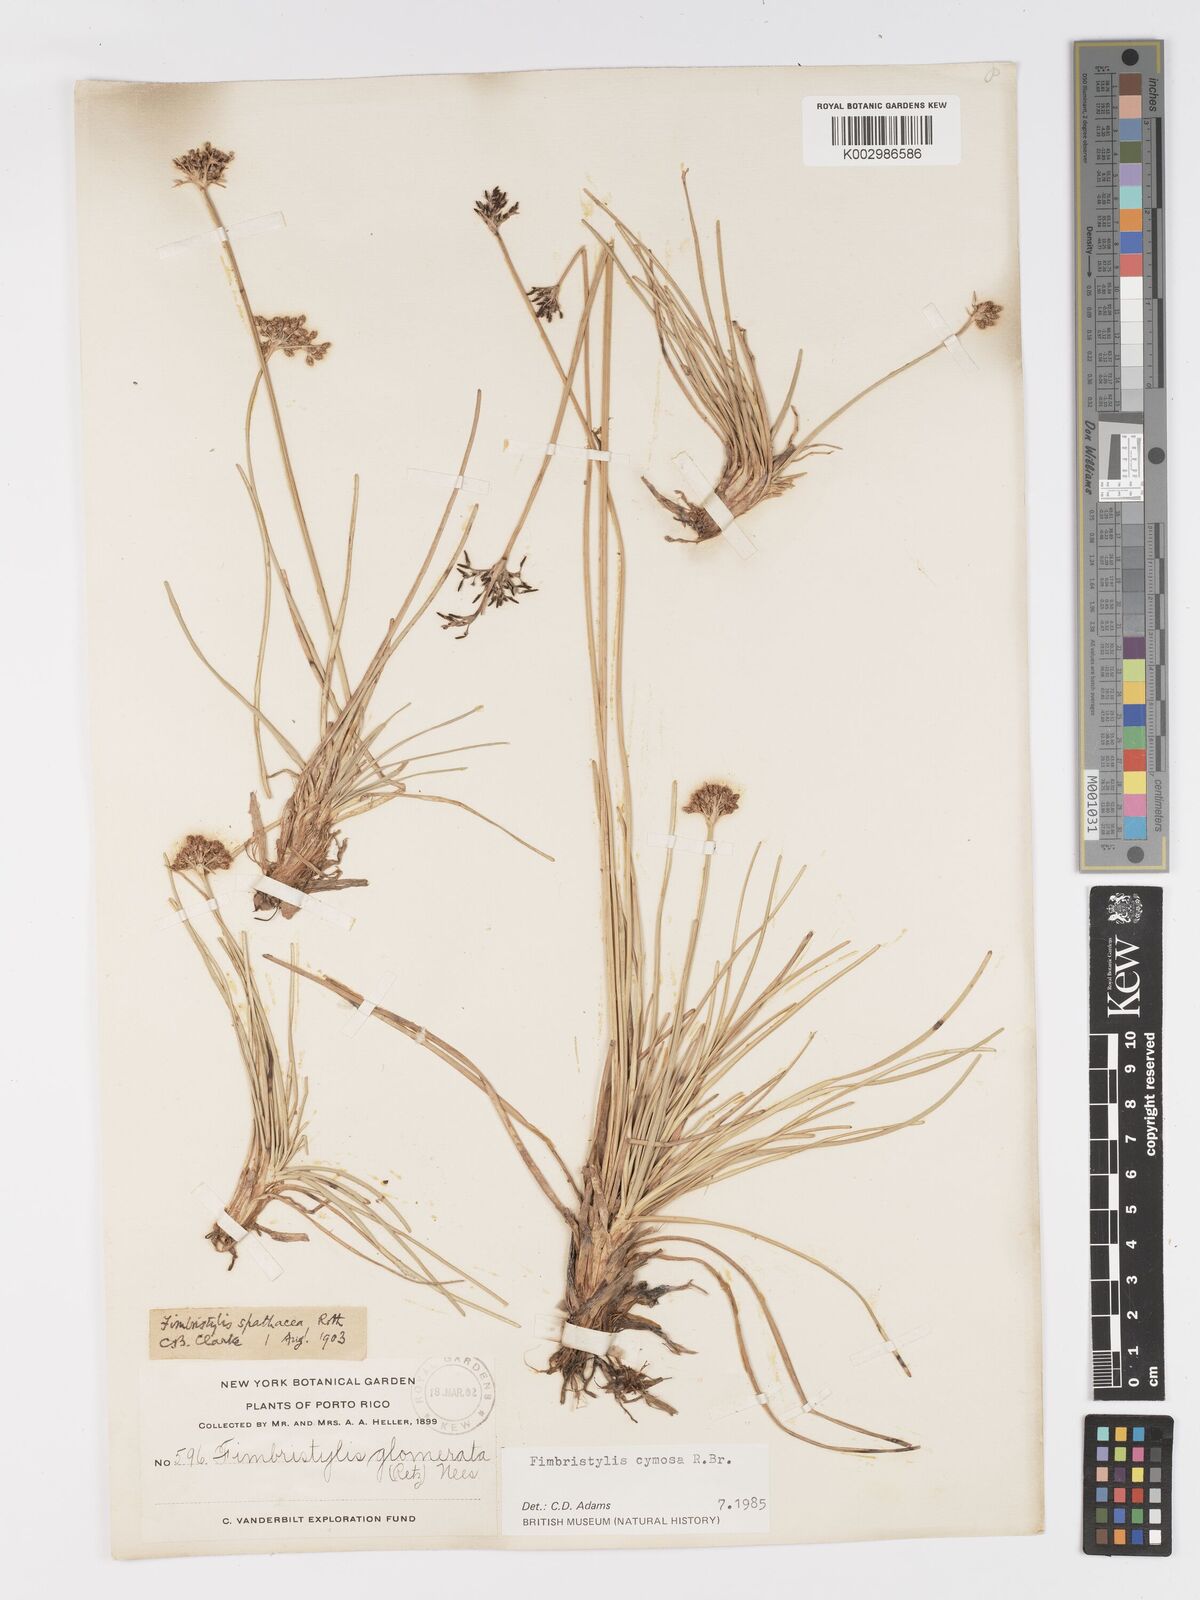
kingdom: Plantae
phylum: Tracheophyta
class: Liliopsida
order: Poales
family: Cyperaceae
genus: Fimbristylis
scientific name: Fimbristylis cymosa
